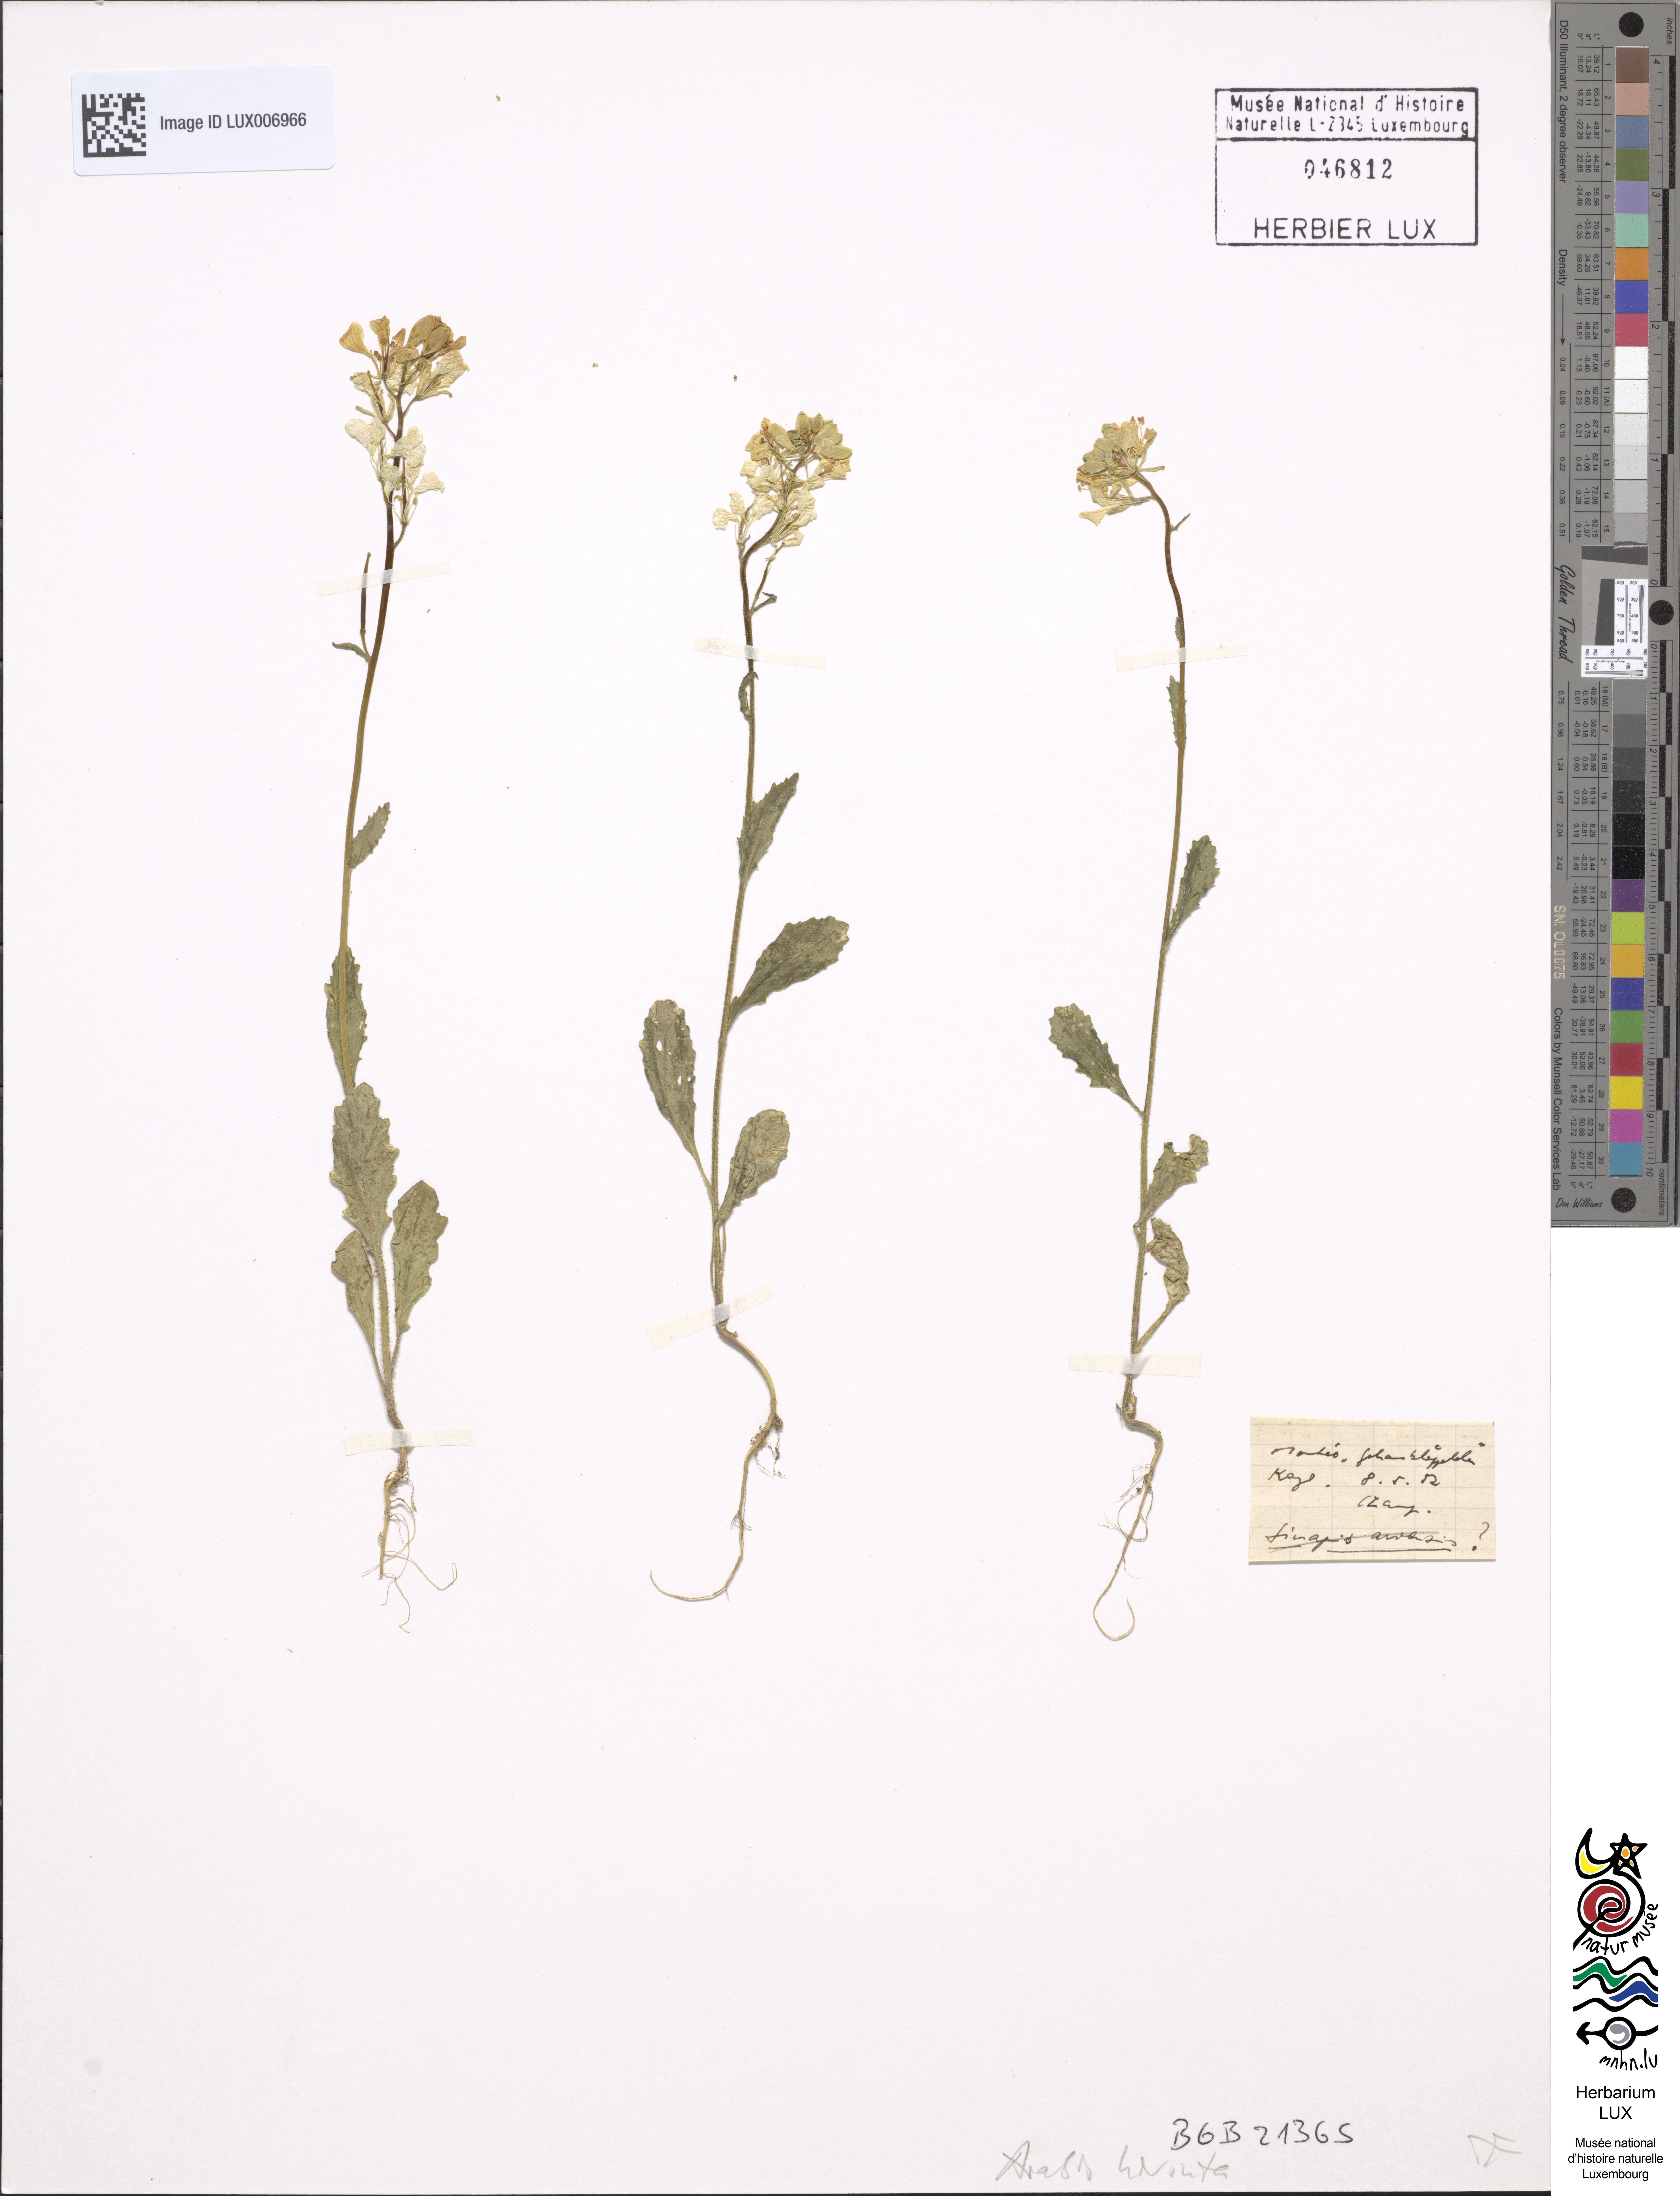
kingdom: Plantae
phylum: Tracheophyta
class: Magnoliopsida
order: Brassicales
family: Brassicaceae
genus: Arabis
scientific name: Arabis hirsuta
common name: Hairy rock-cress
